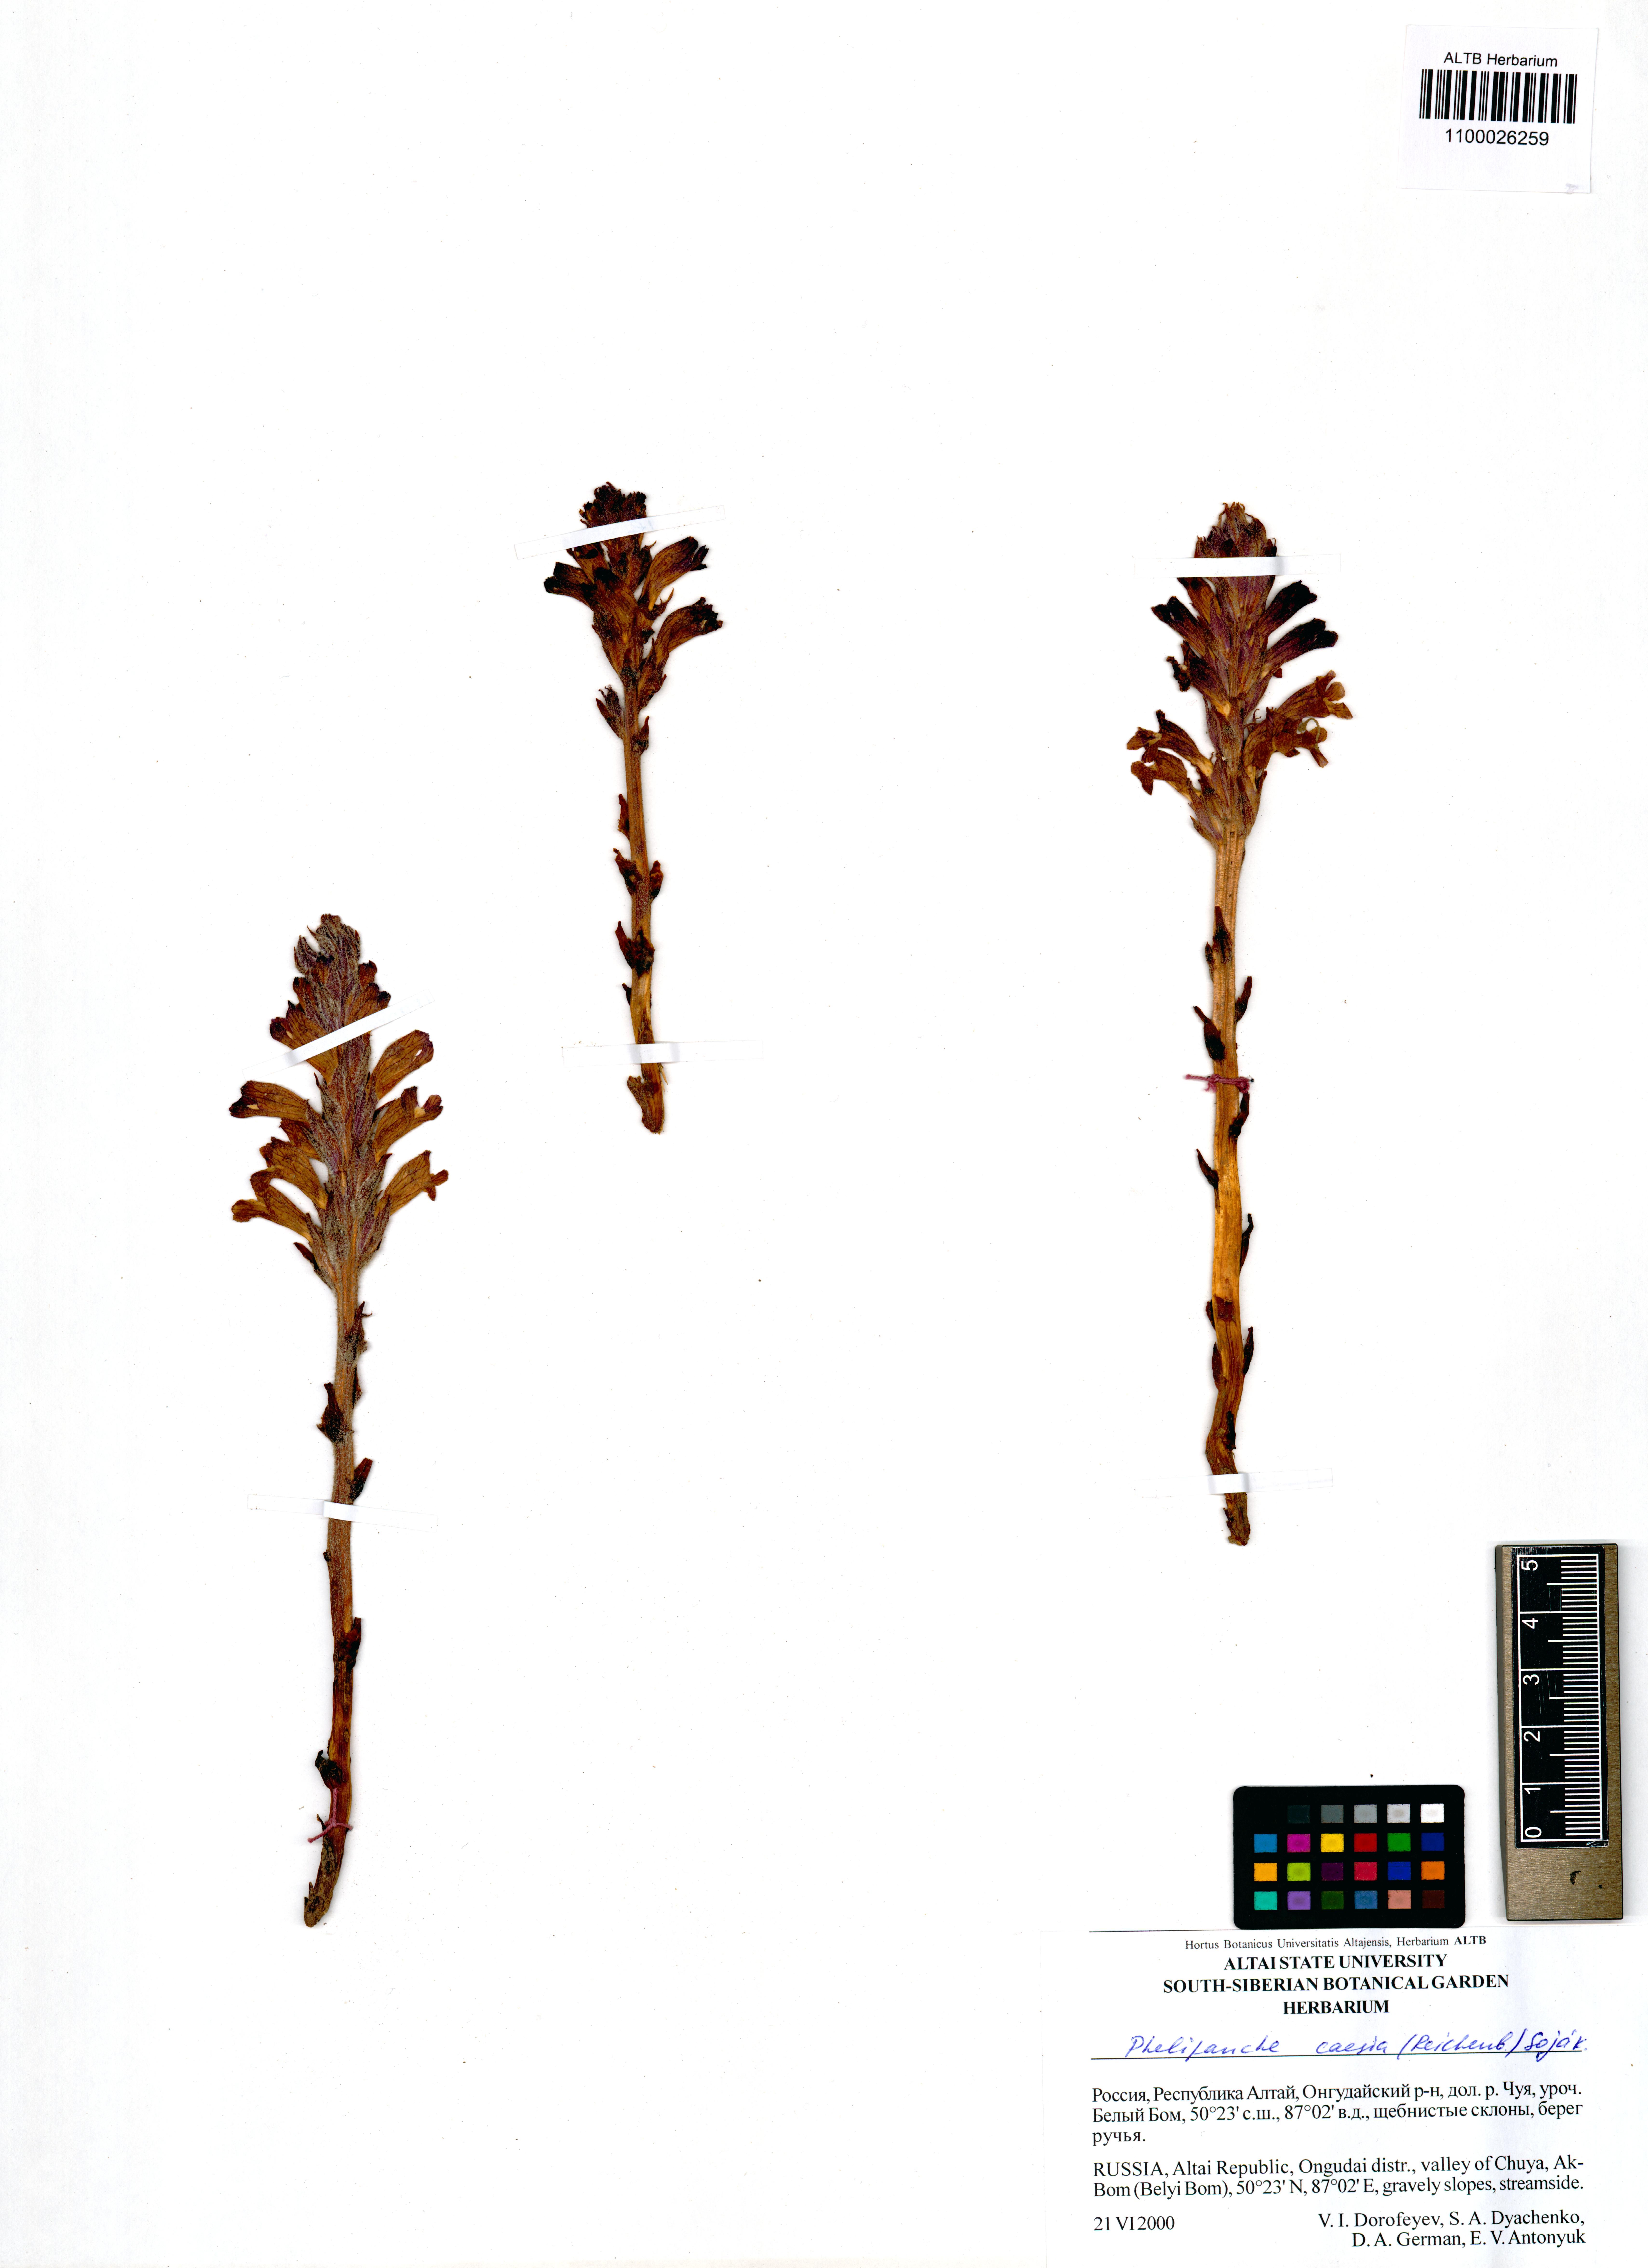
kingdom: Plantae
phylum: Tracheophyta
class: Magnoliopsida
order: Lamiales
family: Orobanchaceae
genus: Phelipanche
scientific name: Phelipanche caesia
